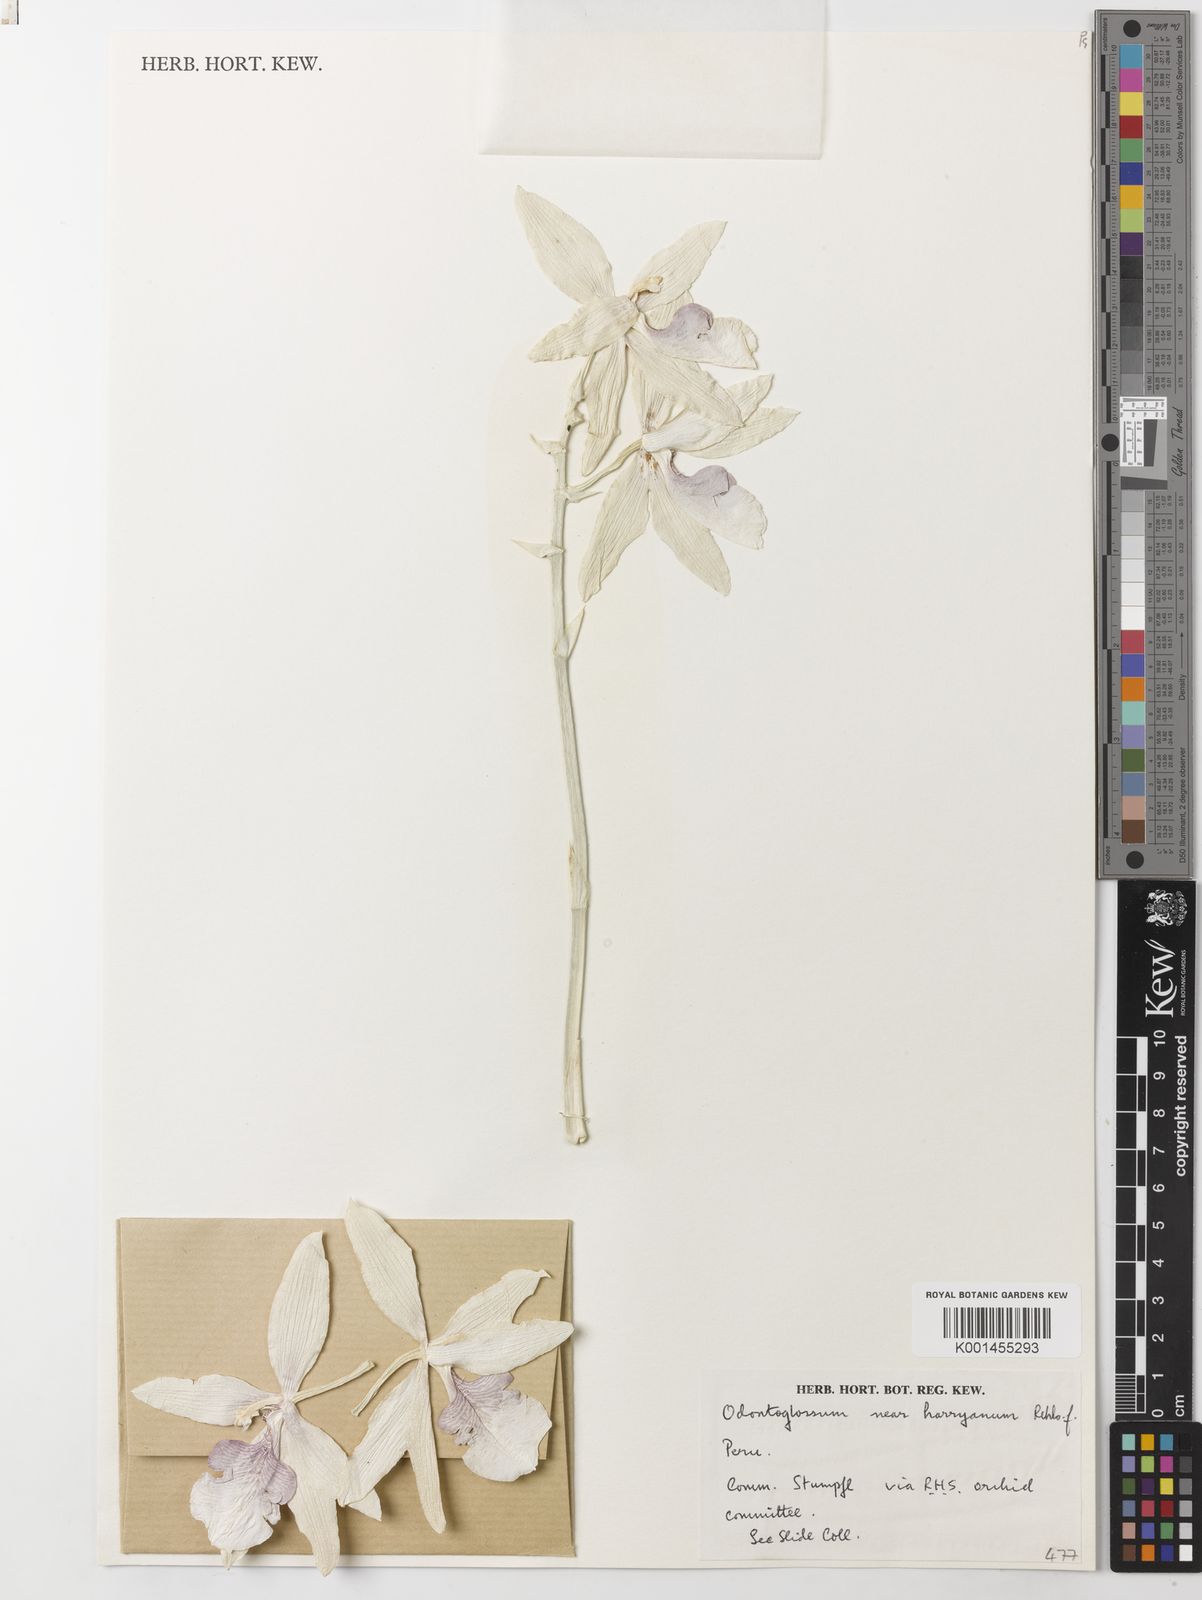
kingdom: Plantae
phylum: Tracheophyta
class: Liliopsida
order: Asparagales
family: Orchidaceae
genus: Oncidium
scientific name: Oncidium harryanum
